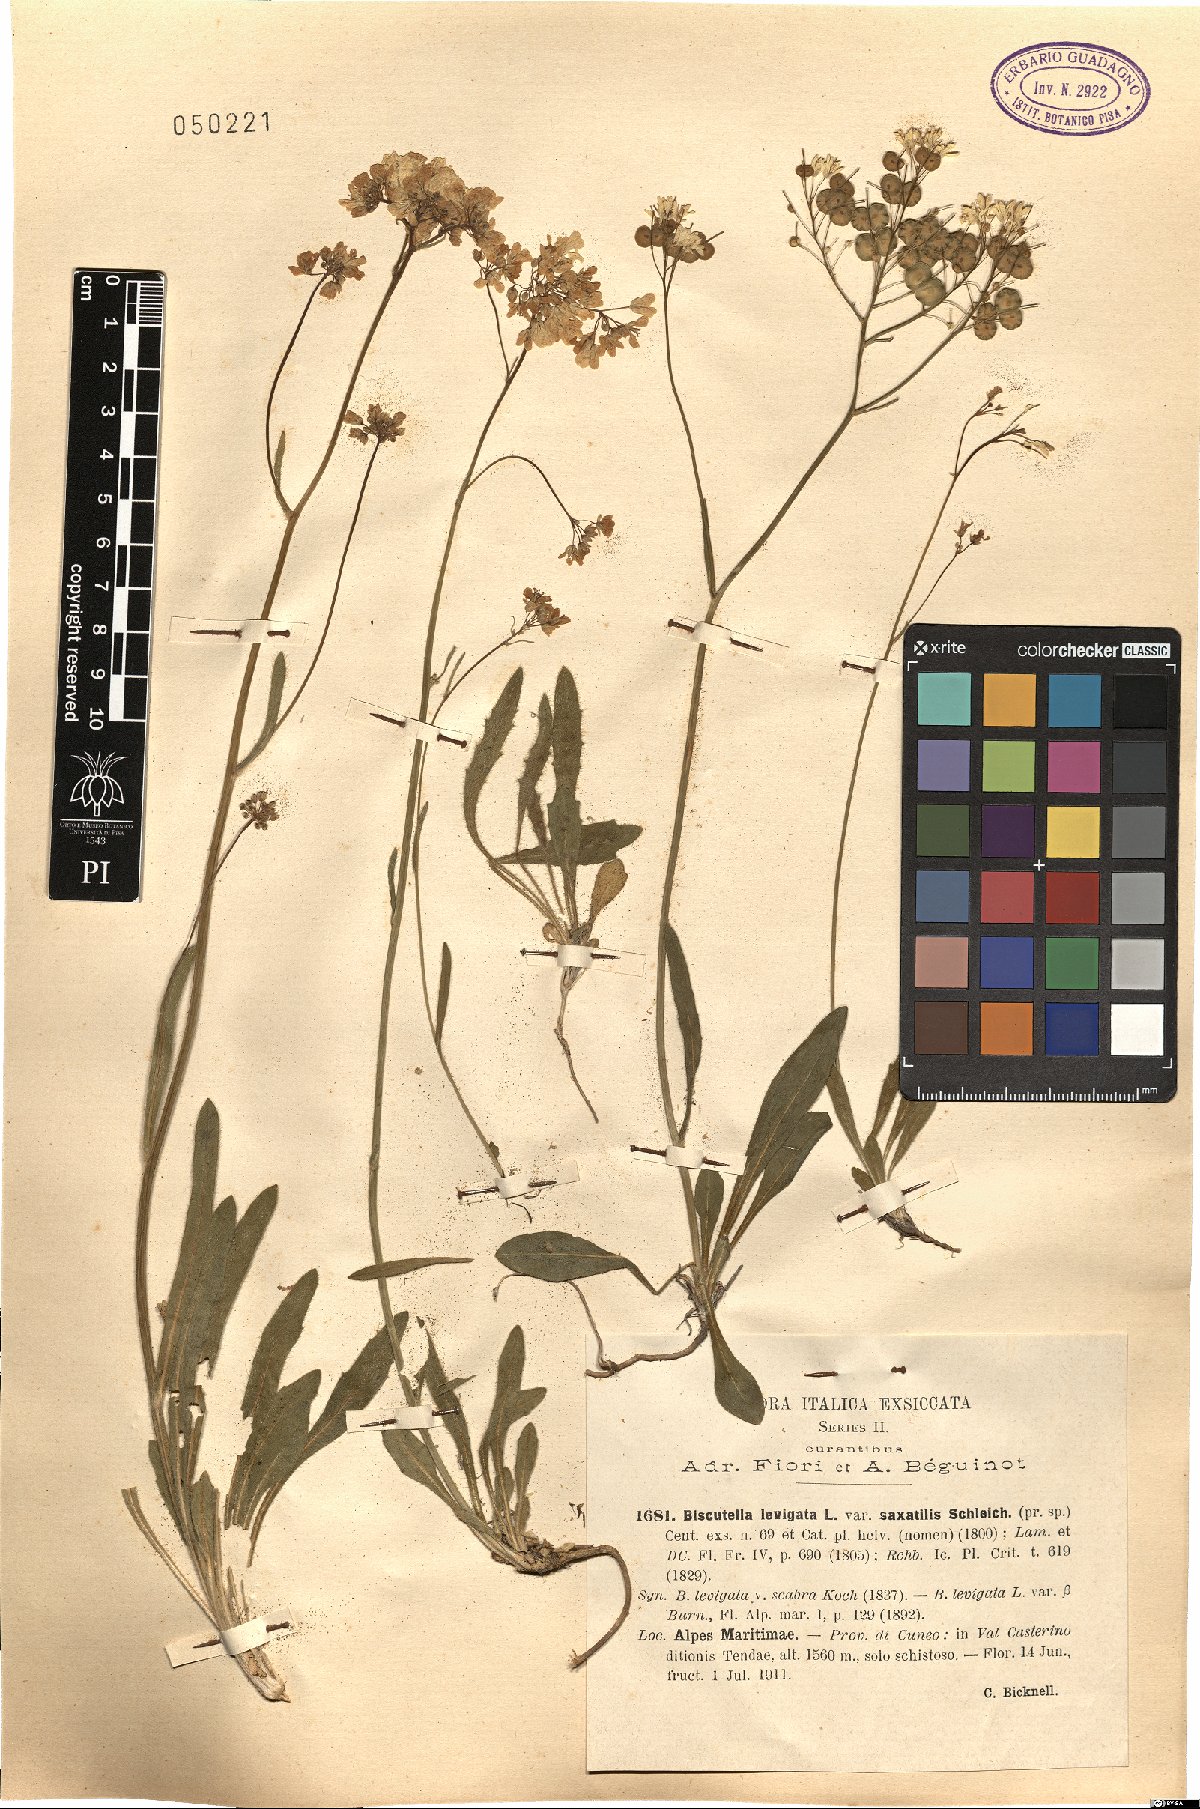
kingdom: Plantae
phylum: Tracheophyta
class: Magnoliopsida
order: Brassicales
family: Brassicaceae
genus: Biscutella
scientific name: Biscutella laevigata
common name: Buckler mustard
